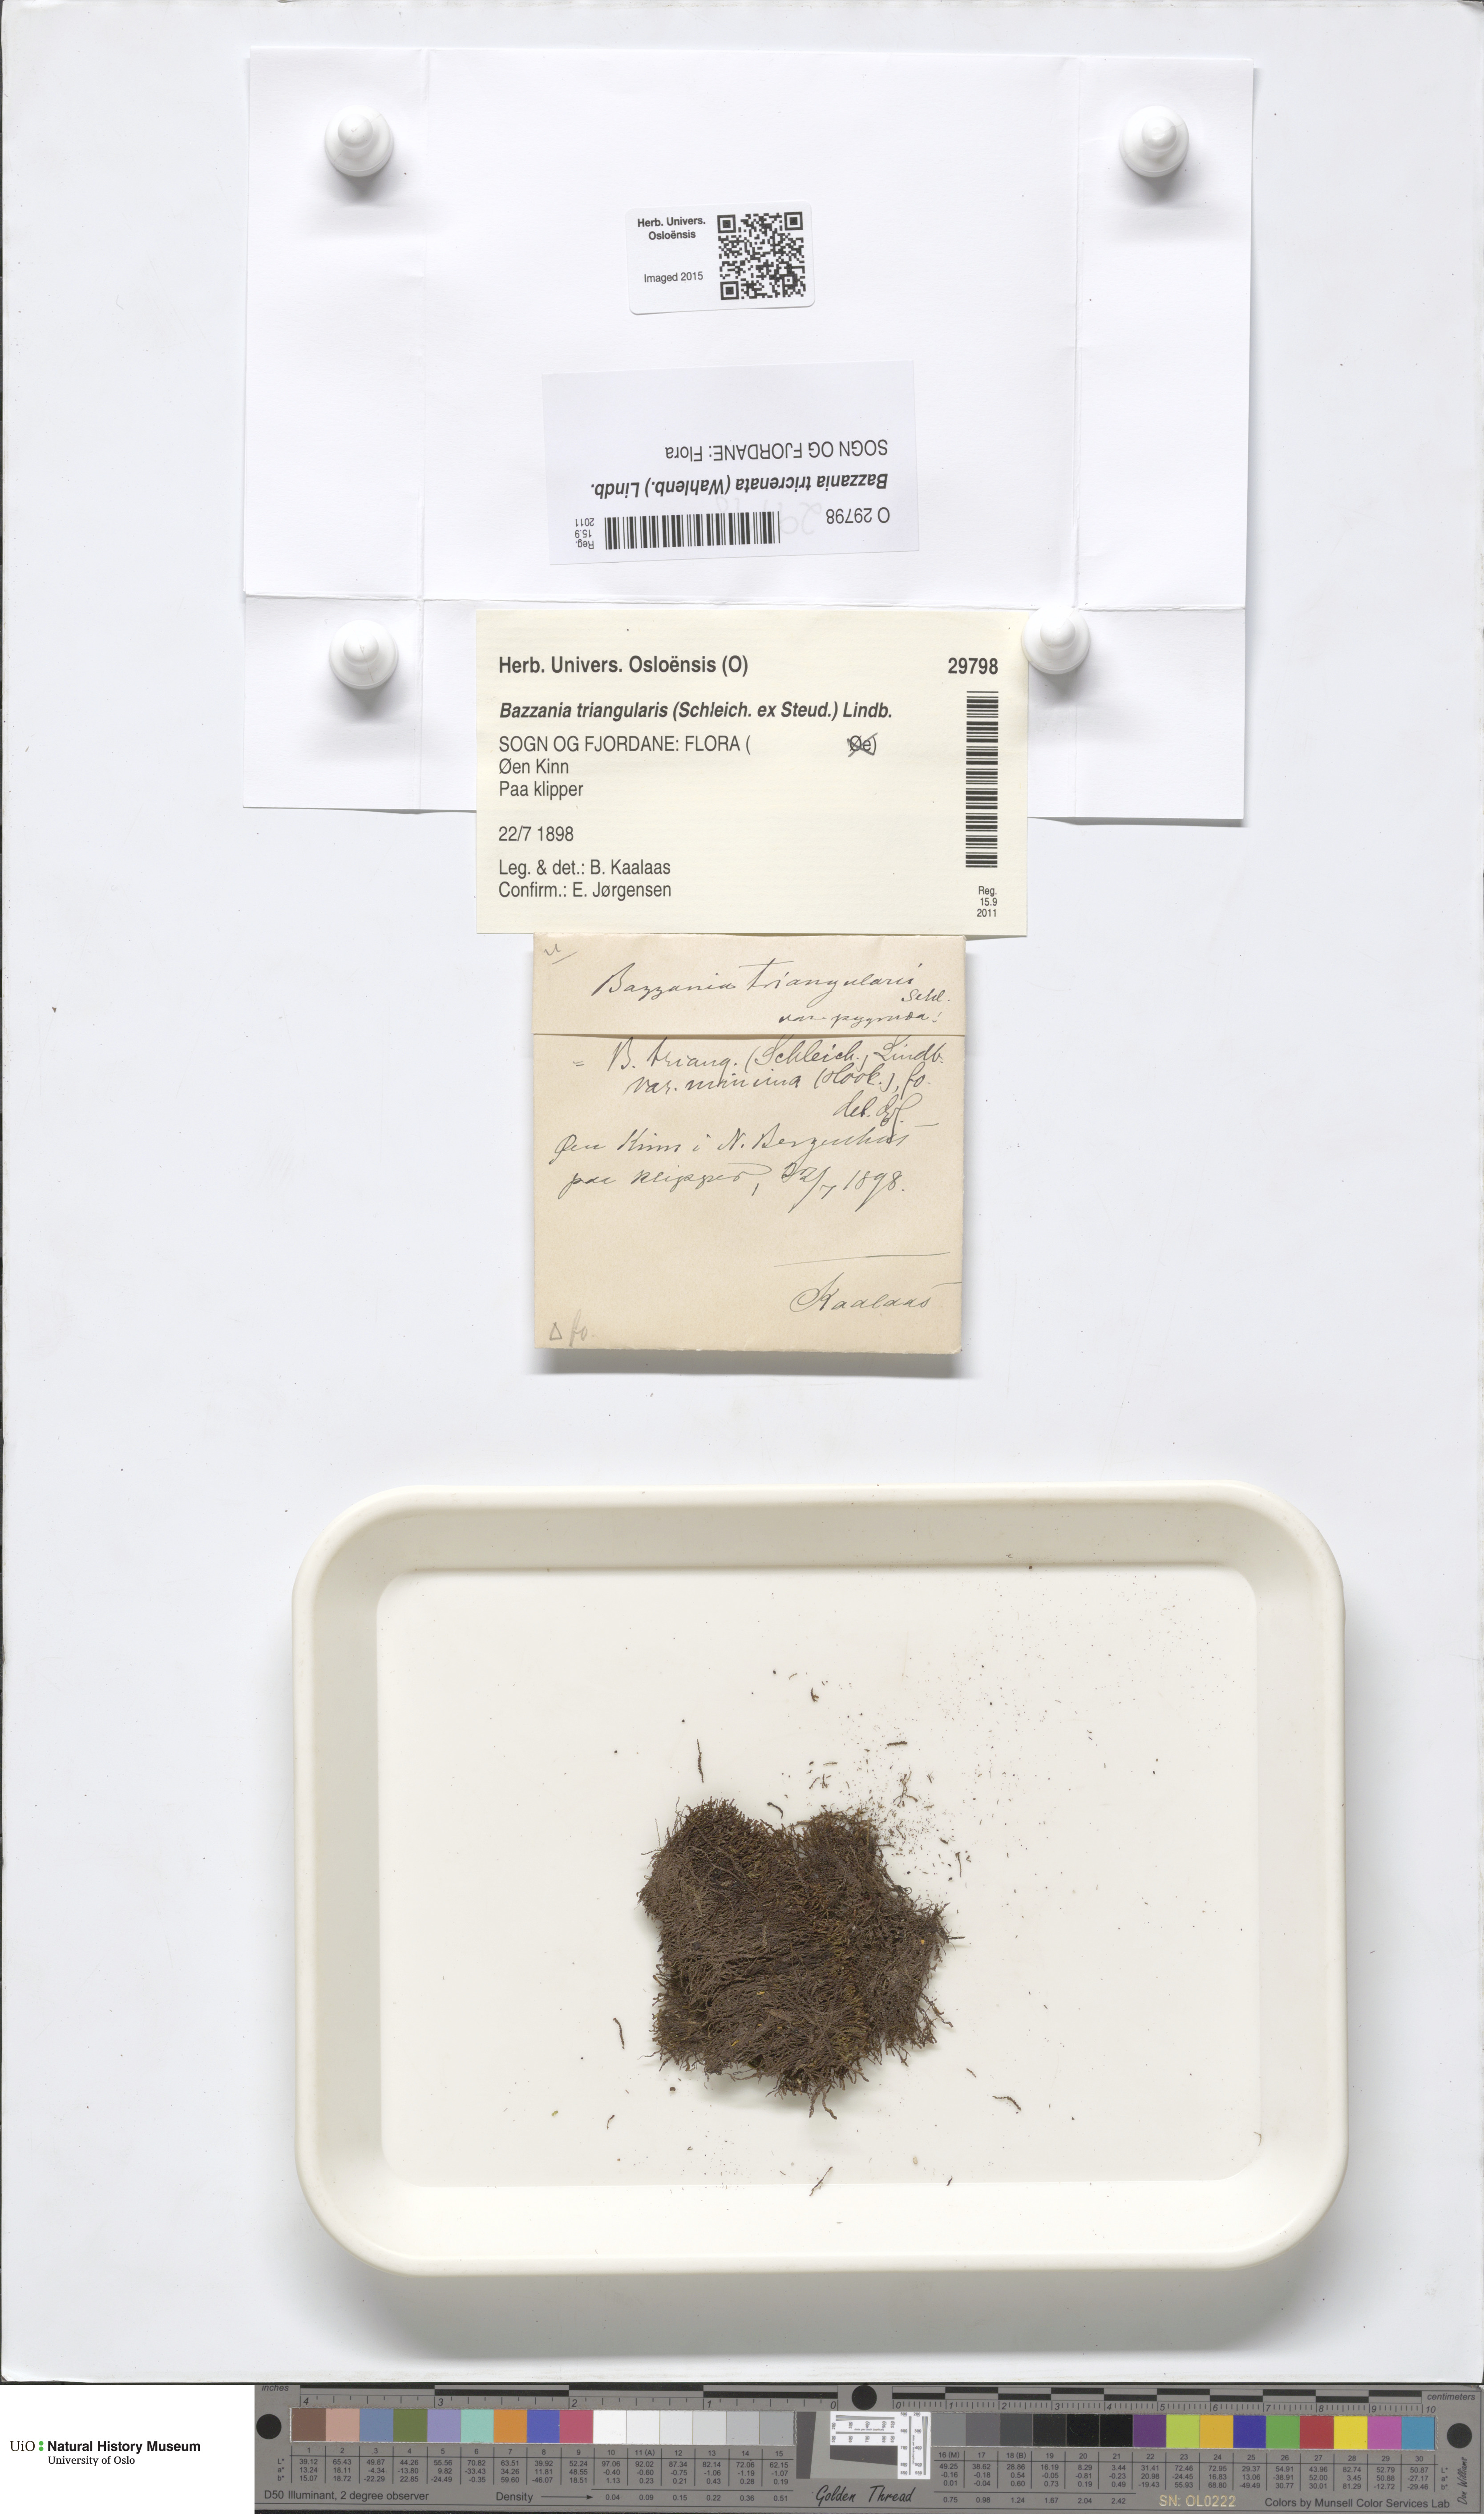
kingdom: Plantae
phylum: Marchantiophyta
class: Jungermanniopsida
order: Jungermanniales
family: Lepidoziaceae
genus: Bazzania
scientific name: Bazzania tricrenata
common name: Lesser whipwort
